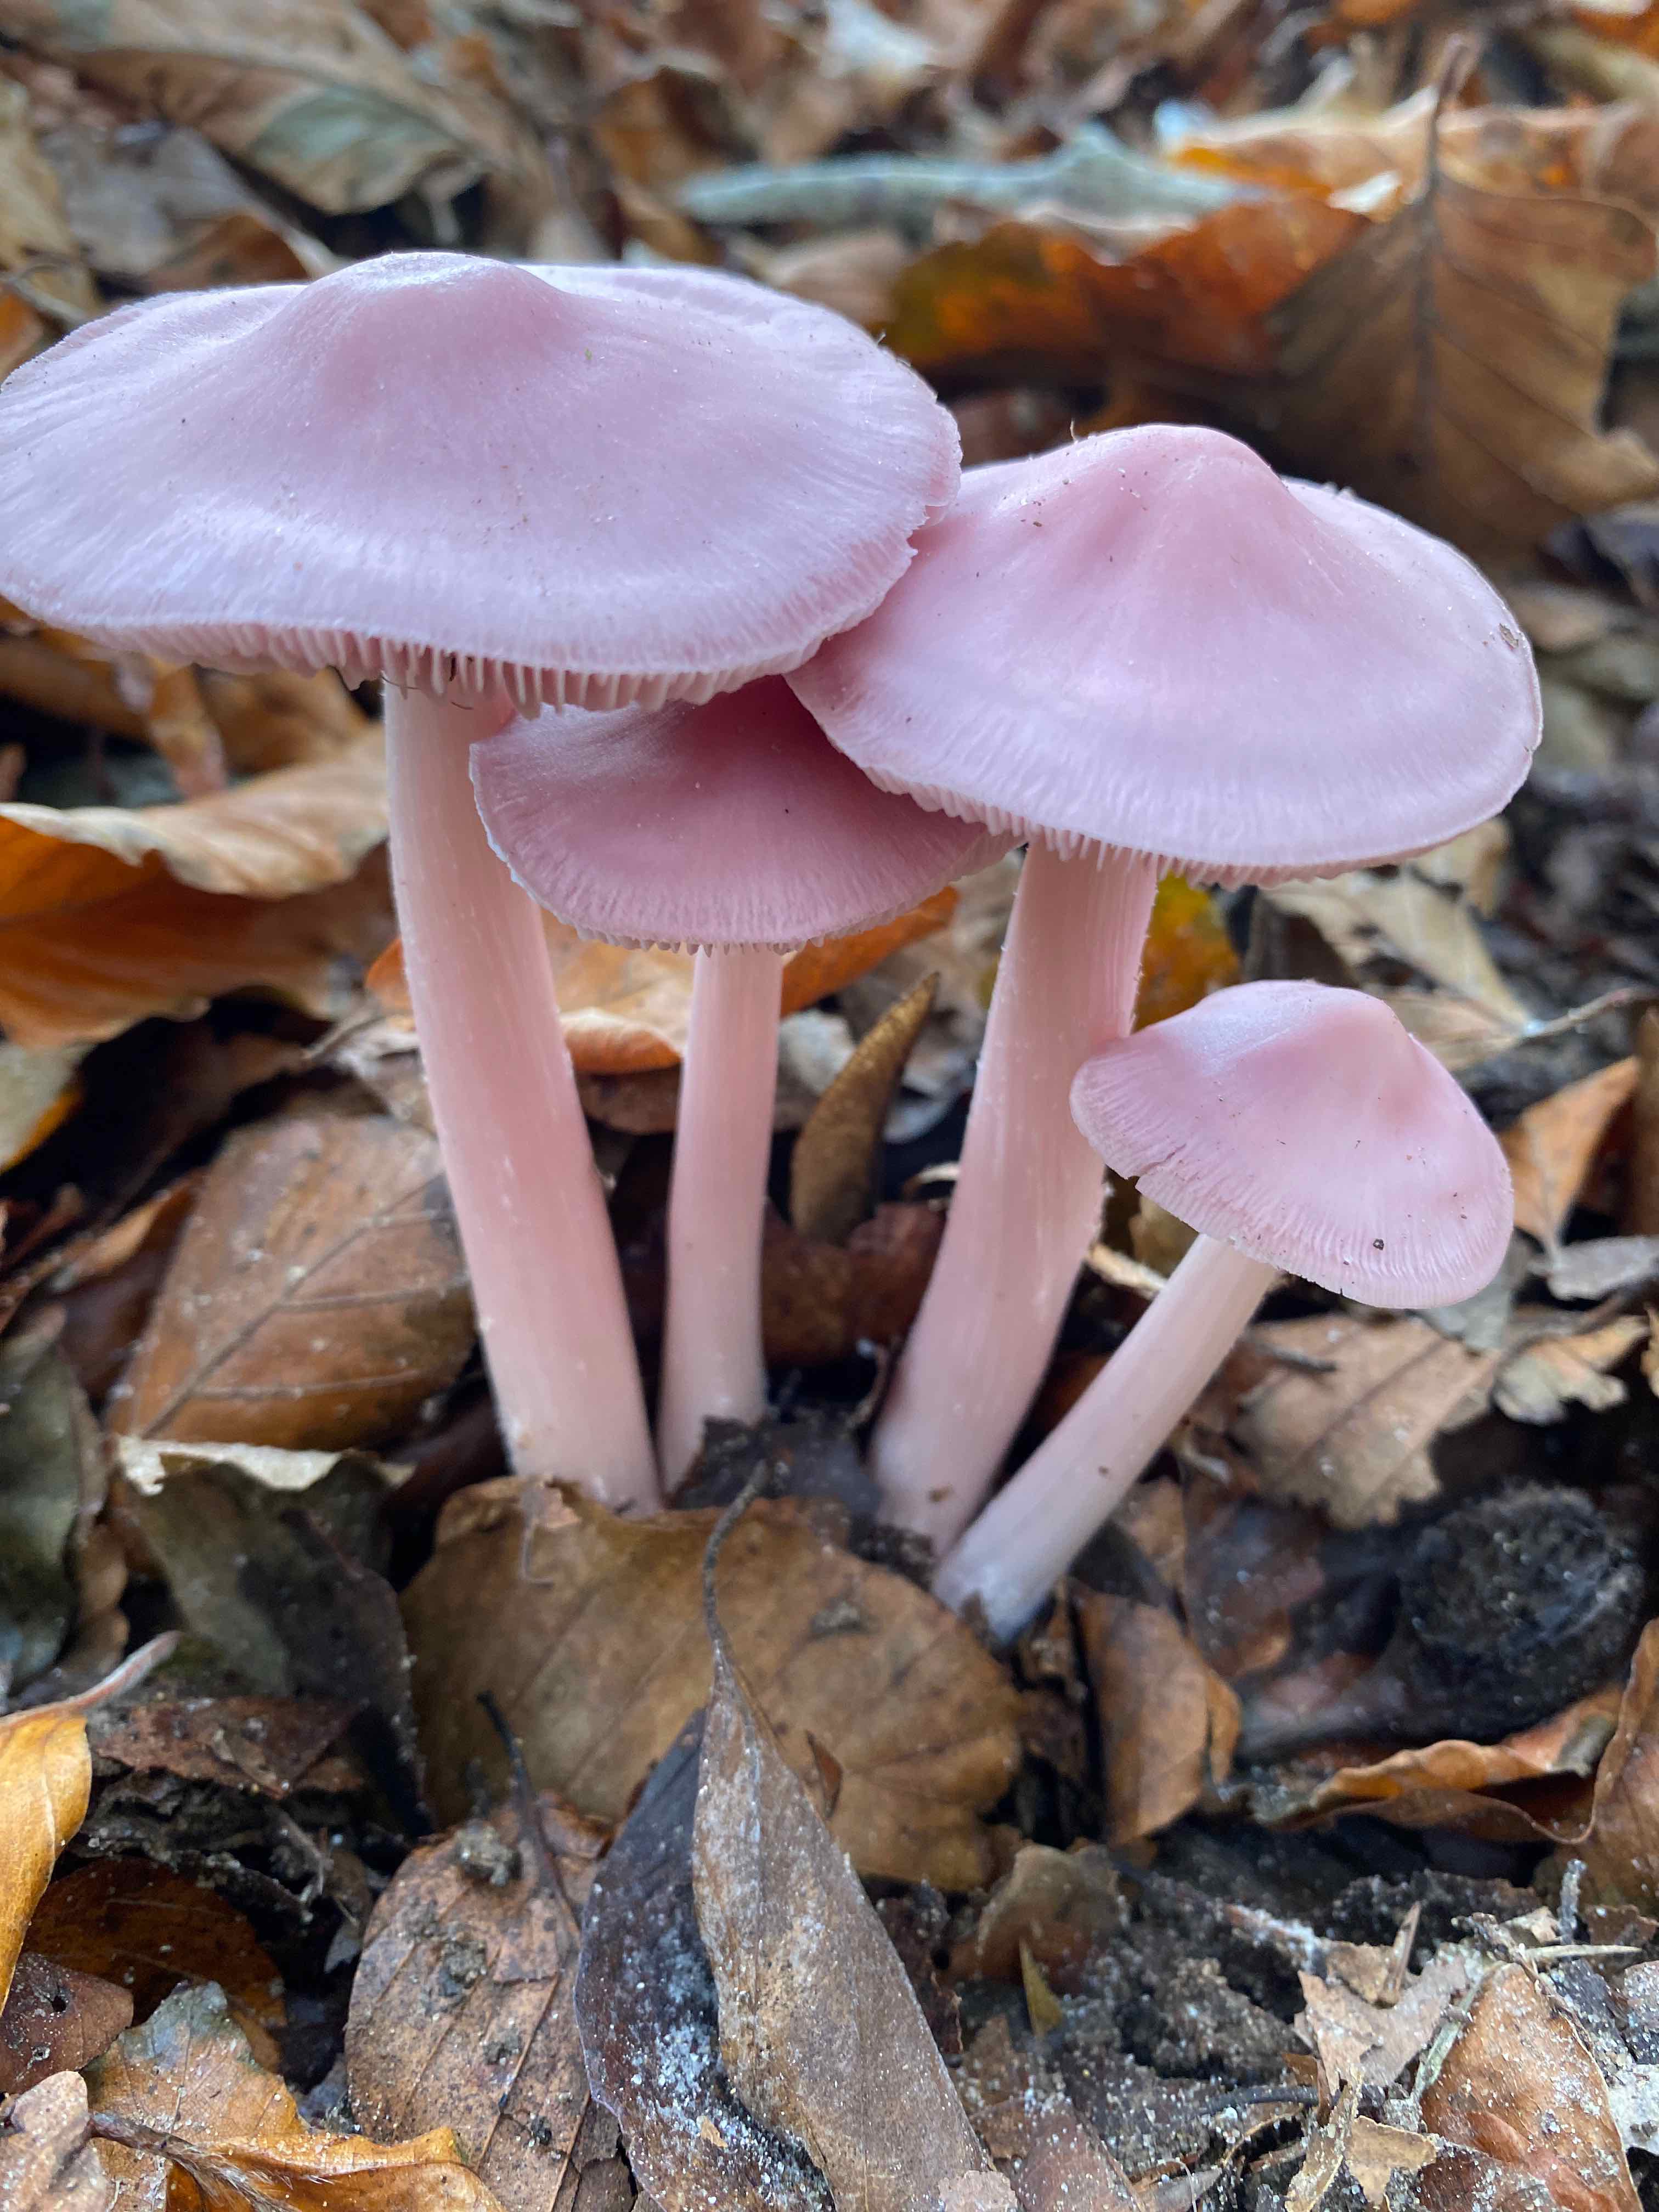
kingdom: Fungi
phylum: Basidiomycota
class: Agaricomycetes
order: Agaricales
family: Mycenaceae
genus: Mycena
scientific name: Mycena rosea
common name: rosa huesvamp
